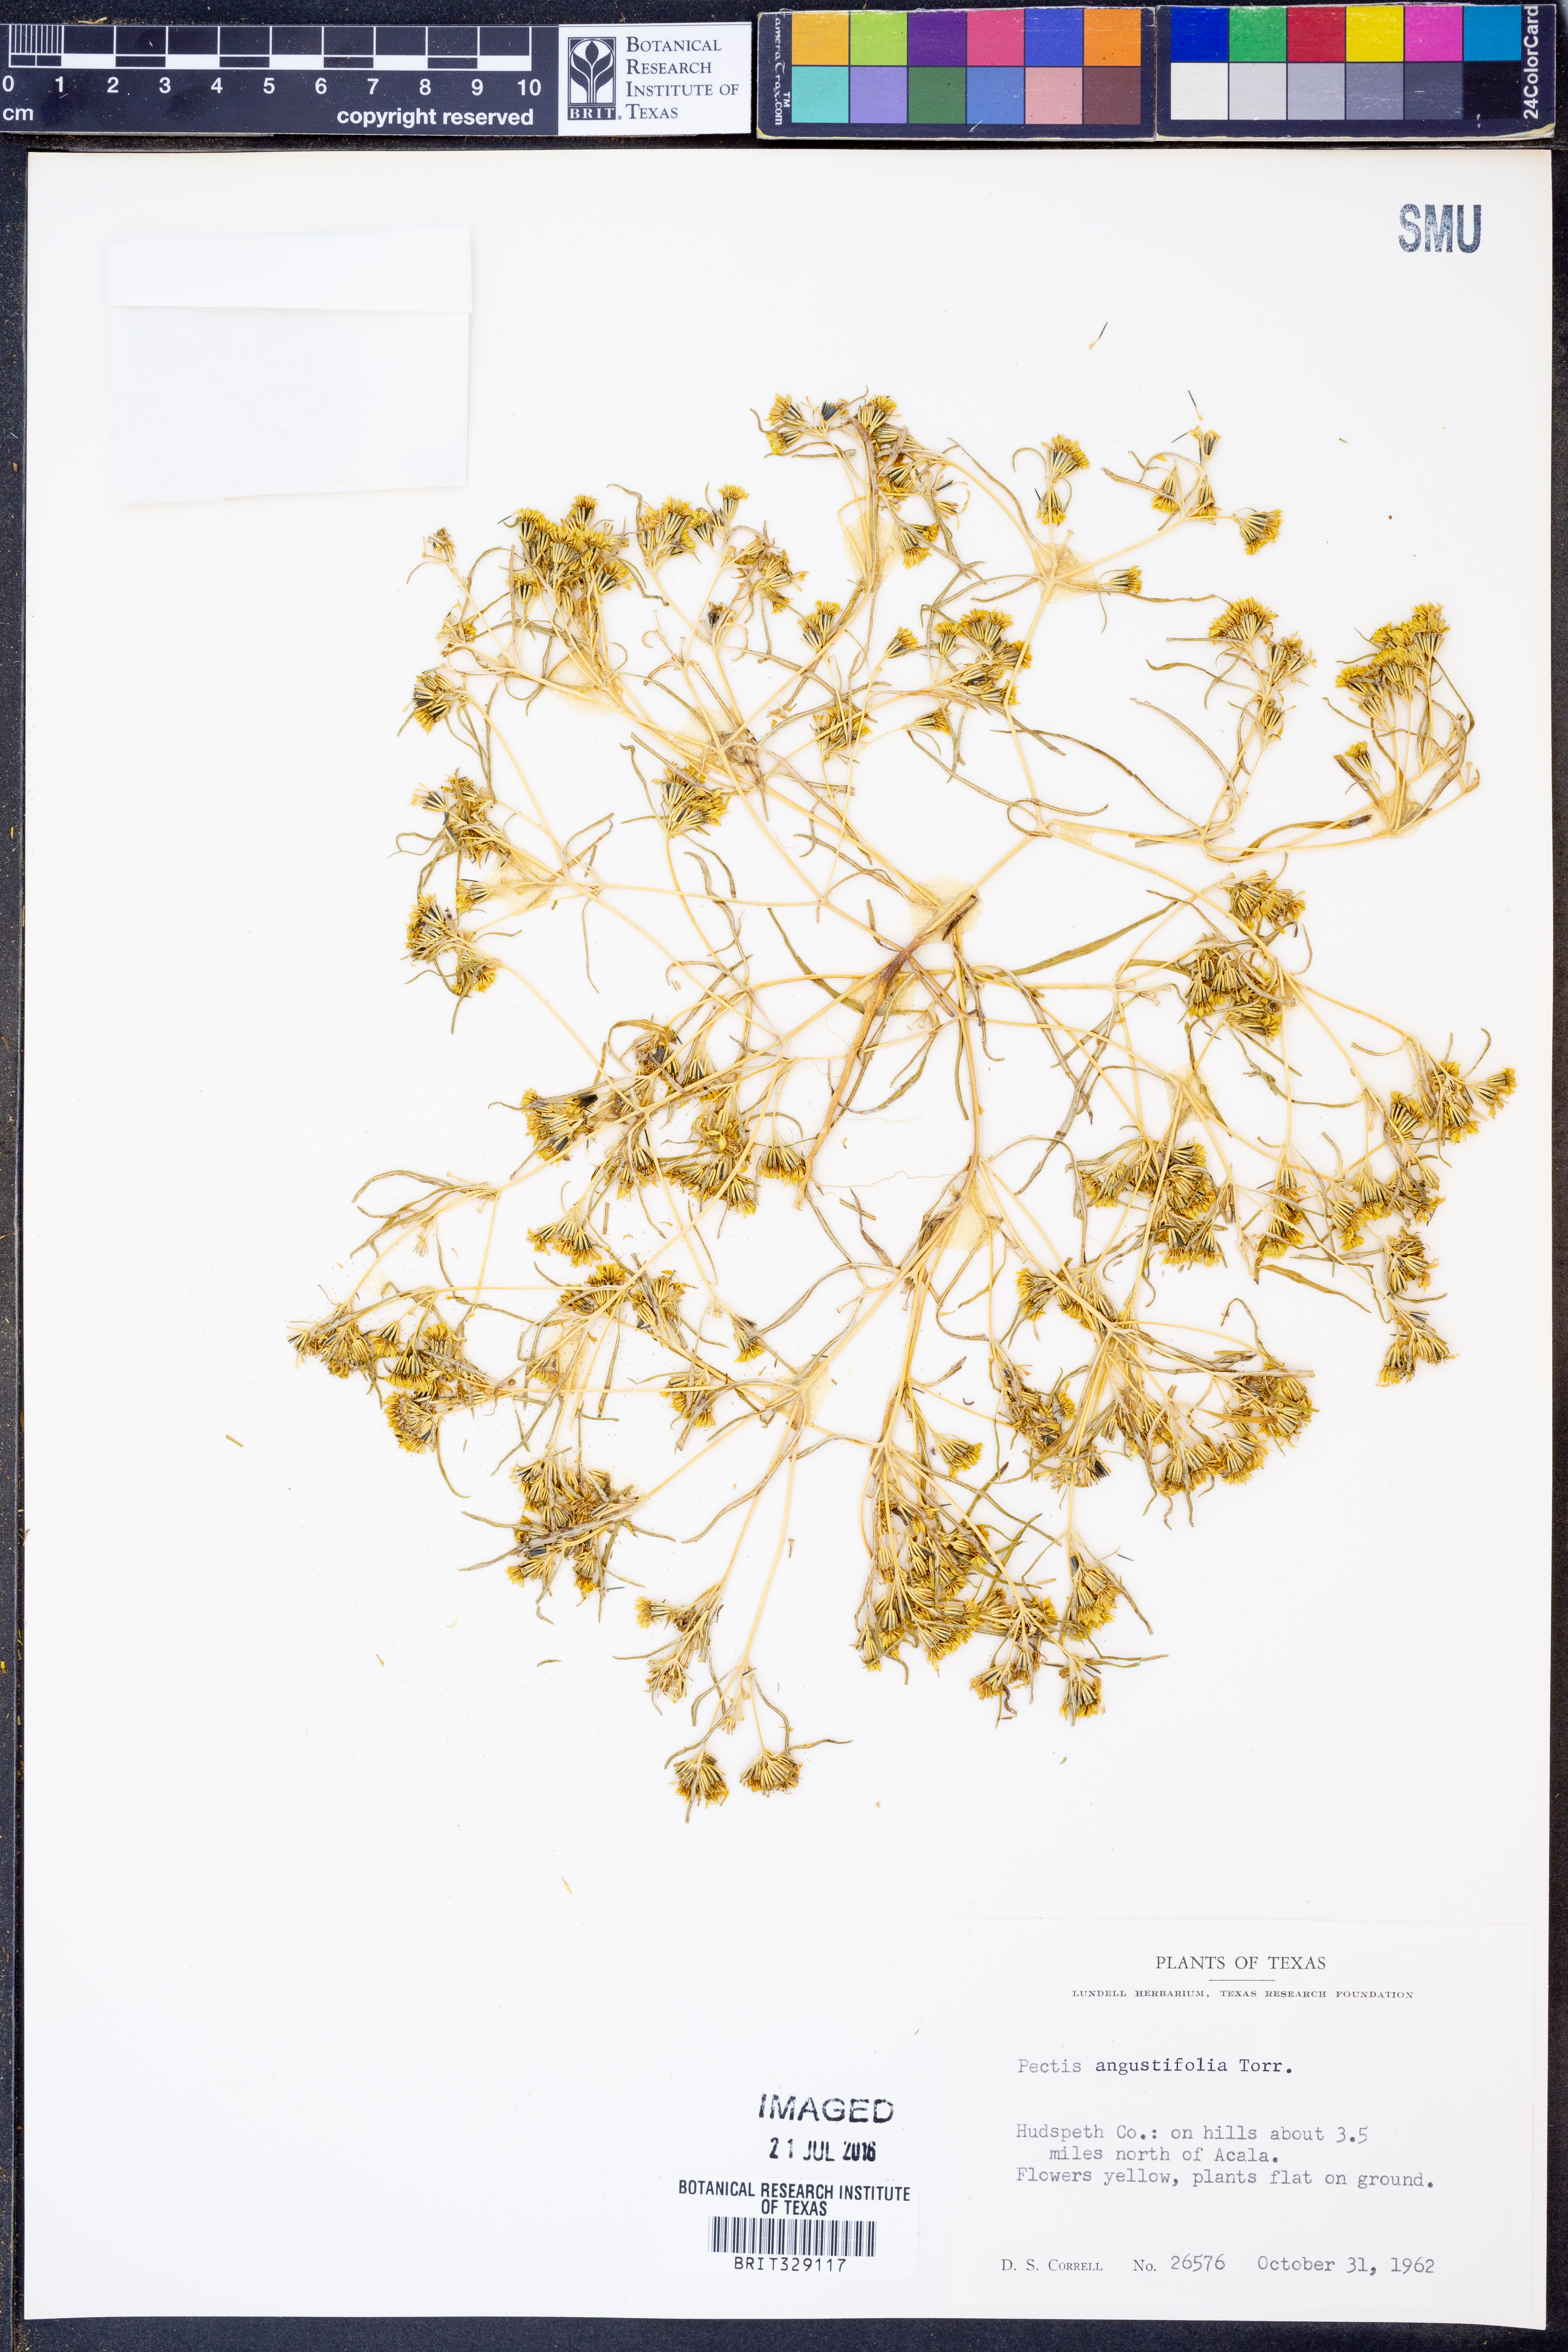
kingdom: Plantae
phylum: Tracheophyta
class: Magnoliopsida
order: Asterales
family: Asteraceae
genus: Pectis
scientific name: Pectis angustifolia
